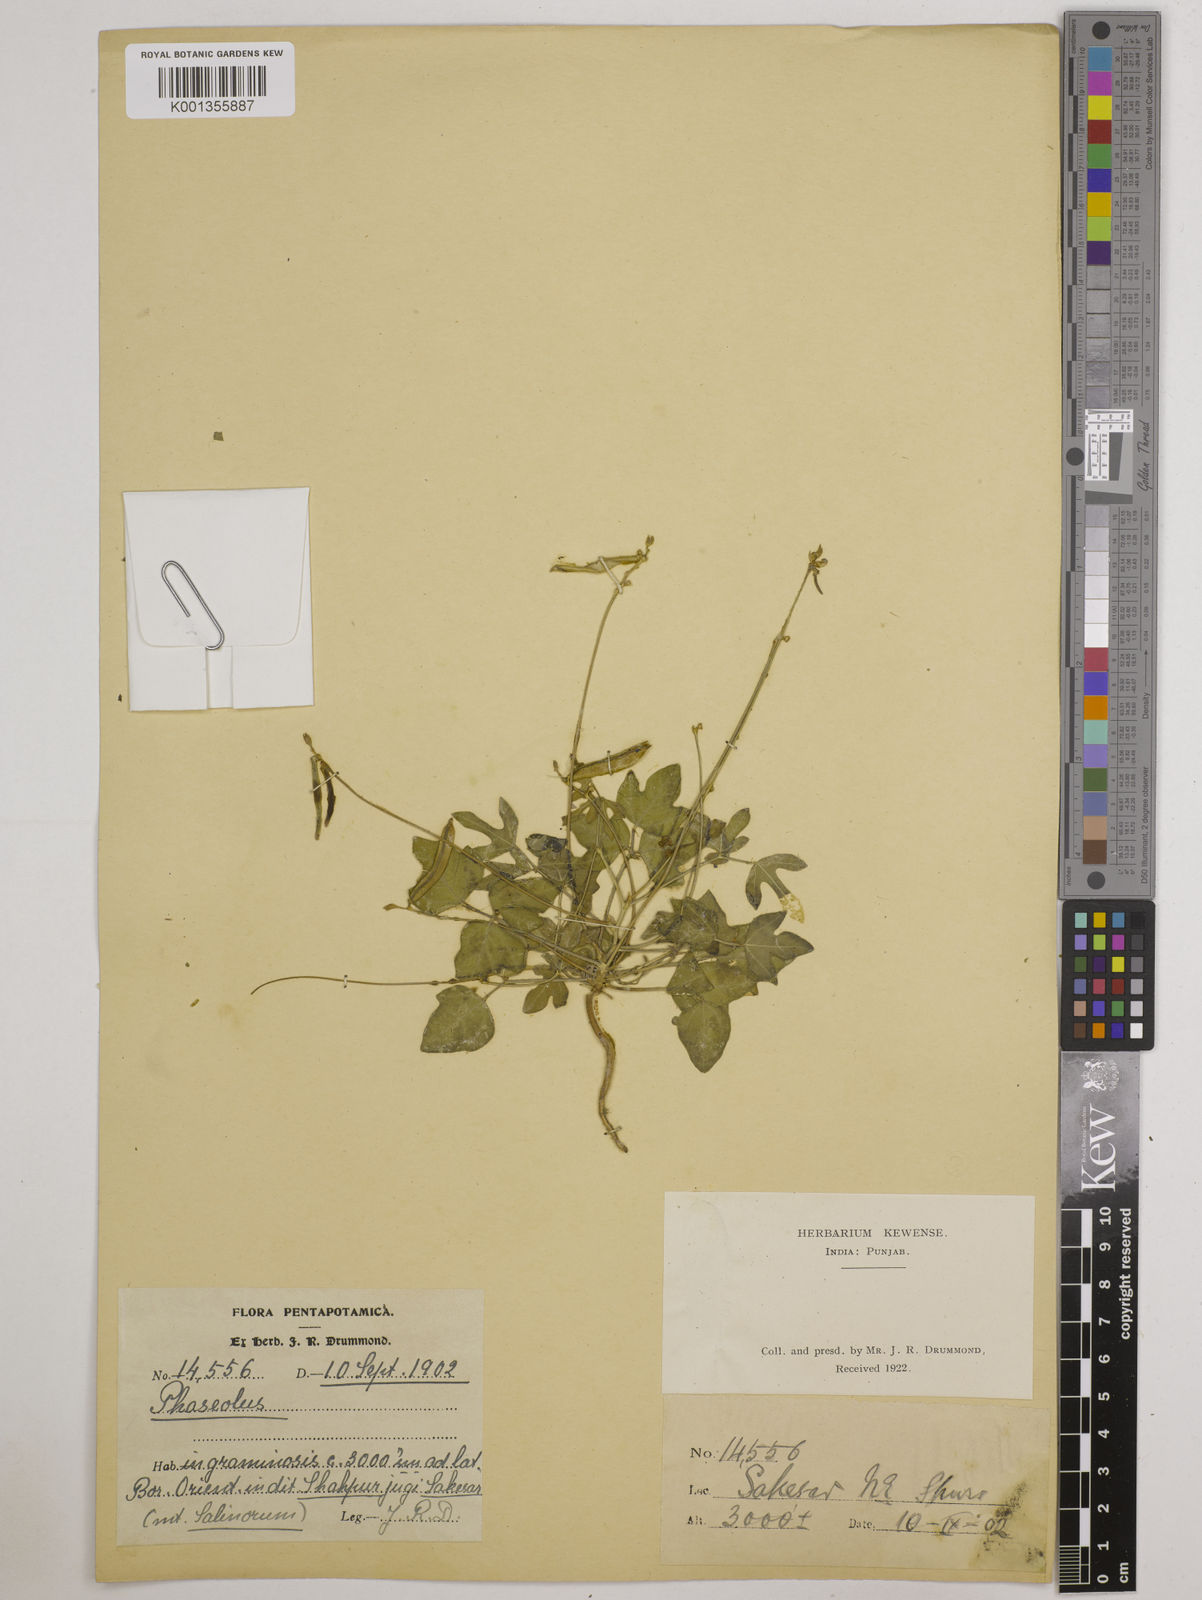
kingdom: Plantae
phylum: Tracheophyta
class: Magnoliopsida
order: Fabales
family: Fabaceae
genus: Vigna
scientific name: Vigna trilobata
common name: Jungli-bean
